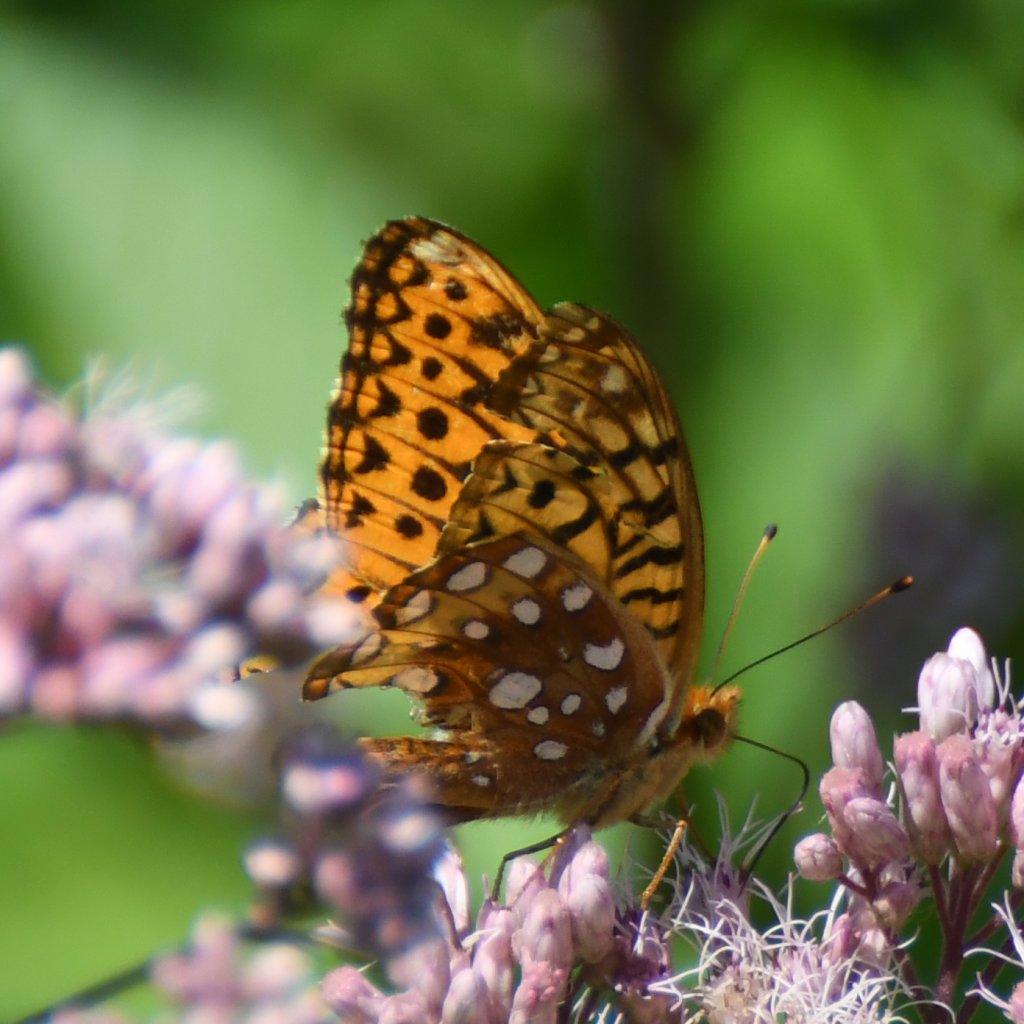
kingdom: Animalia
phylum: Arthropoda
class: Insecta
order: Lepidoptera
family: Nymphalidae
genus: Speyeria
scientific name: Speyeria cybele
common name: Great Spangled Fritillary
